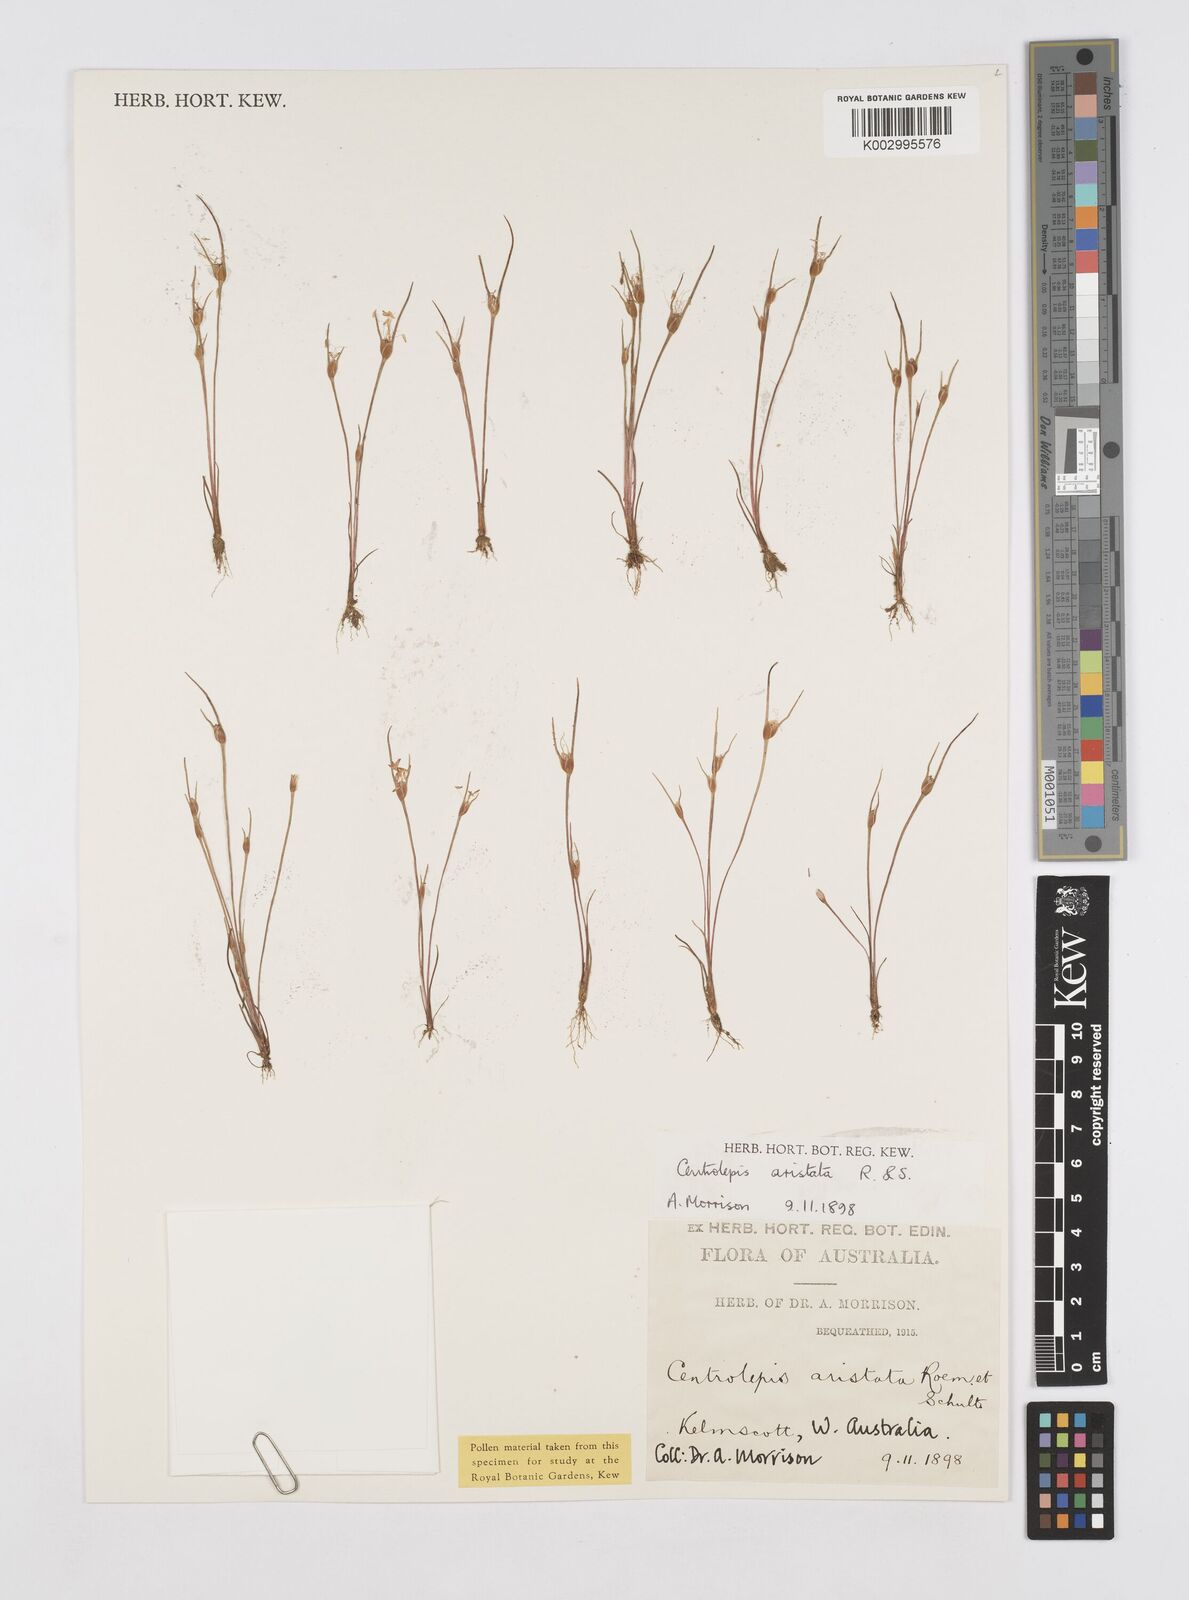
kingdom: Plantae
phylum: Tracheophyta
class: Liliopsida
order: Poales
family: Restionaceae
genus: Centrolepis
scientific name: Centrolepis aristata
